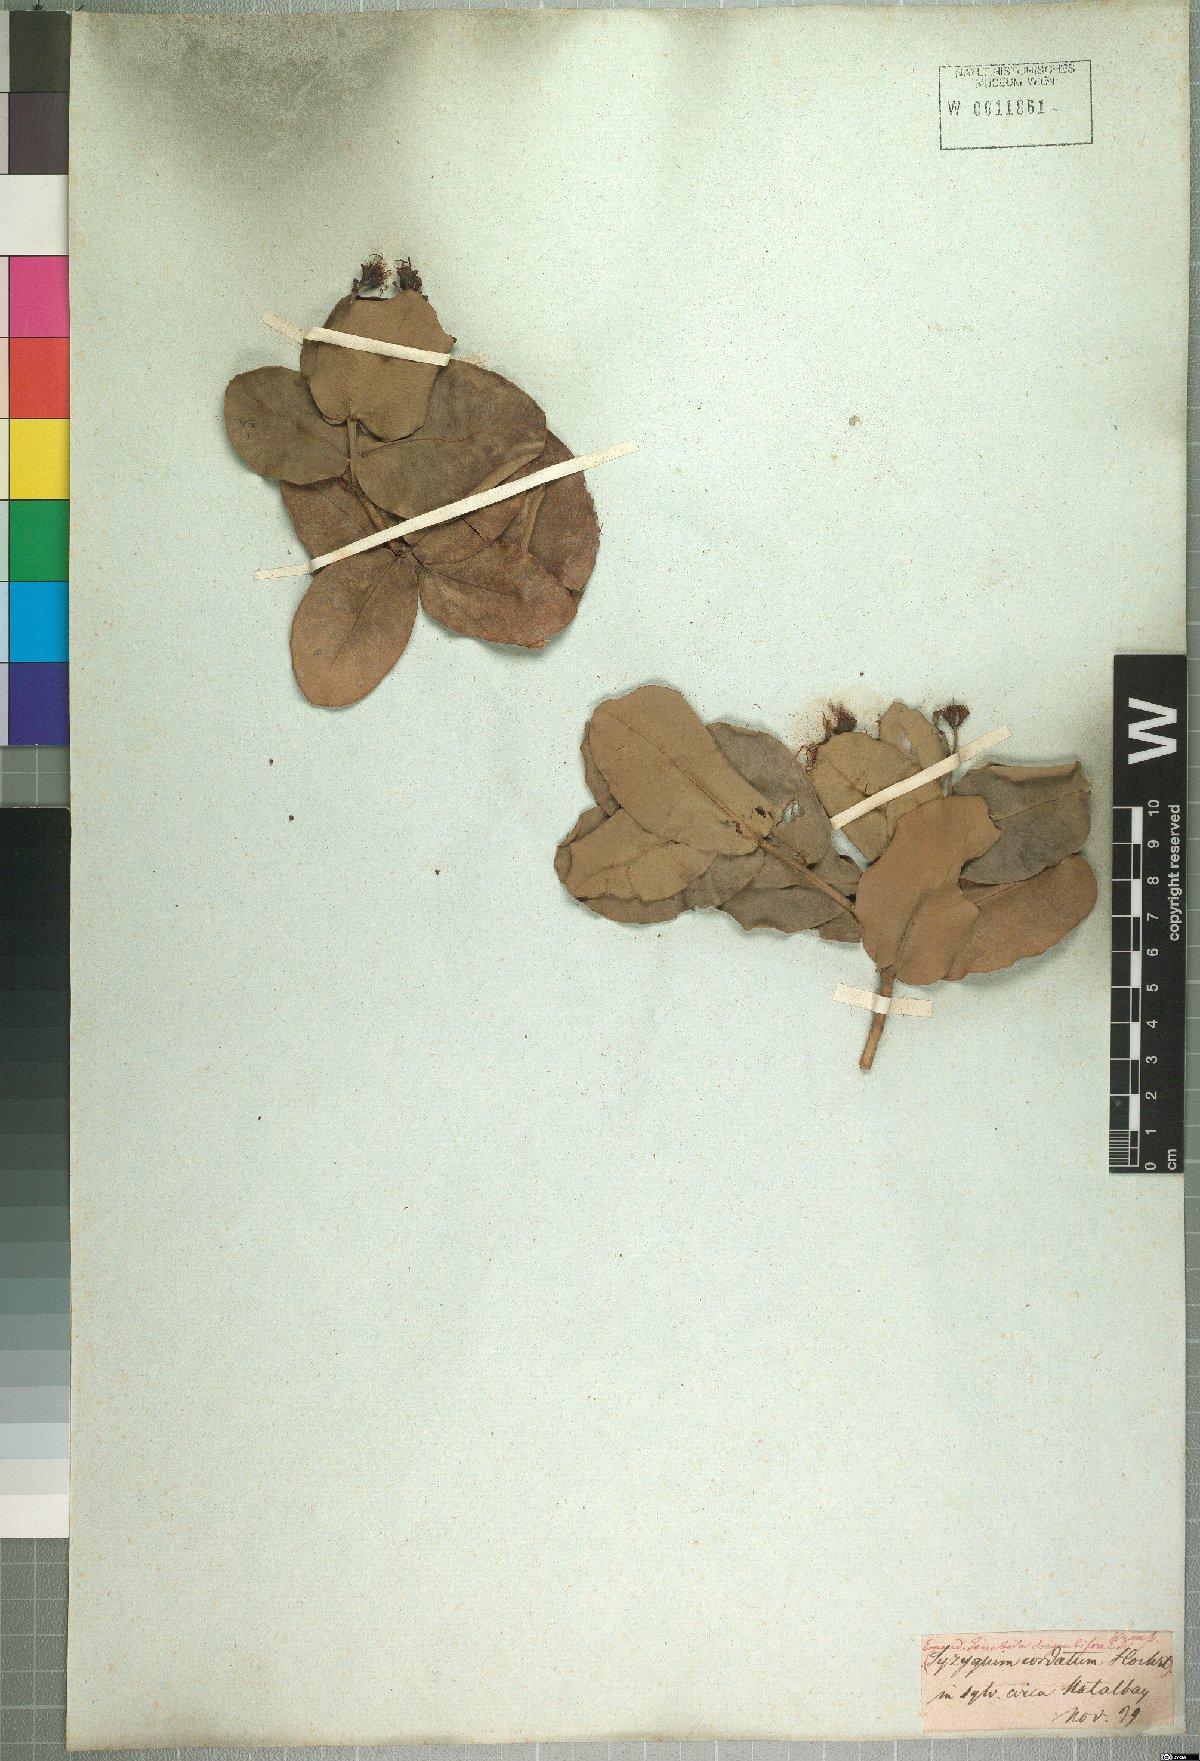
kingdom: Plantae
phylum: Tracheophyta
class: Magnoliopsida
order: Myrtales
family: Myrtaceae
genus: Syzygium
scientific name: Syzygium cordatum
